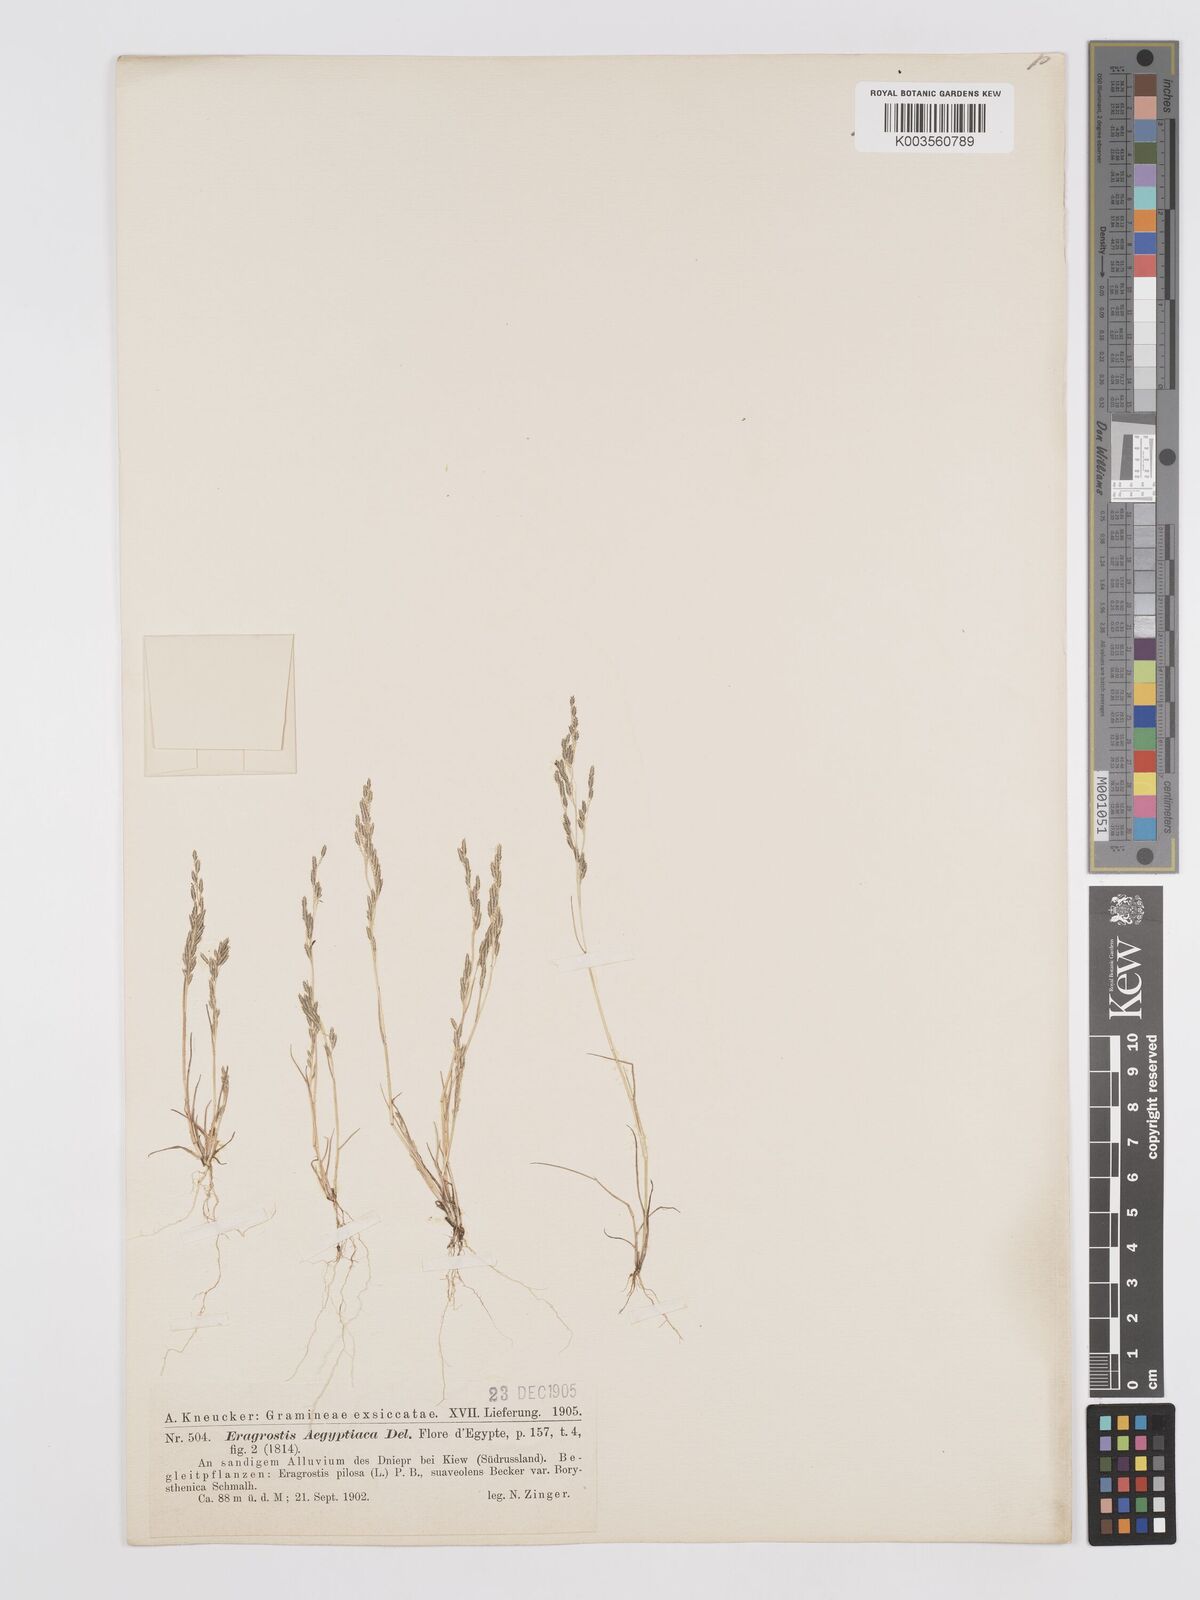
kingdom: Plantae
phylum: Tracheophyta
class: Liliopsida
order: Poales
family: Poaceae
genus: Eragrostis
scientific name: Eragrostis aegyptiaca
